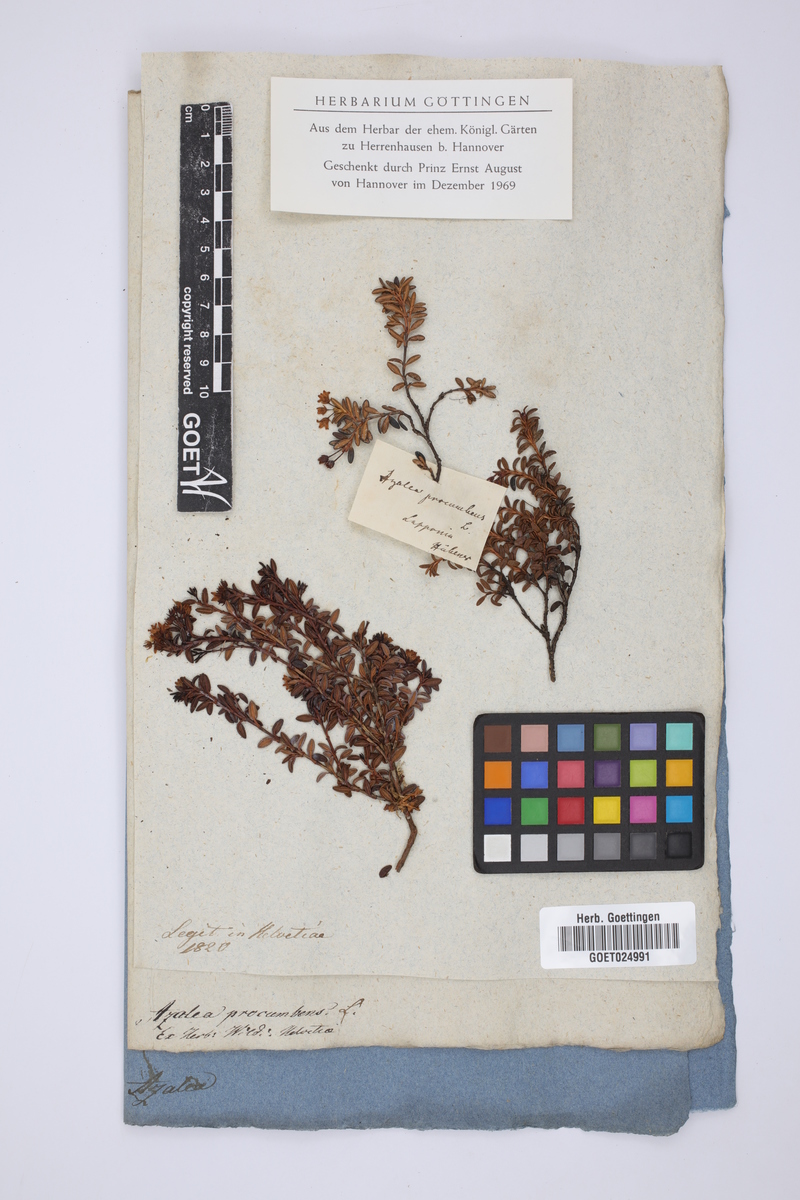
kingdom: Plantae
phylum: Tracheophyta
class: Magnoliopsida
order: Ericales
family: Ericaceae
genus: Kalmia
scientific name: Kalmia procumbens
